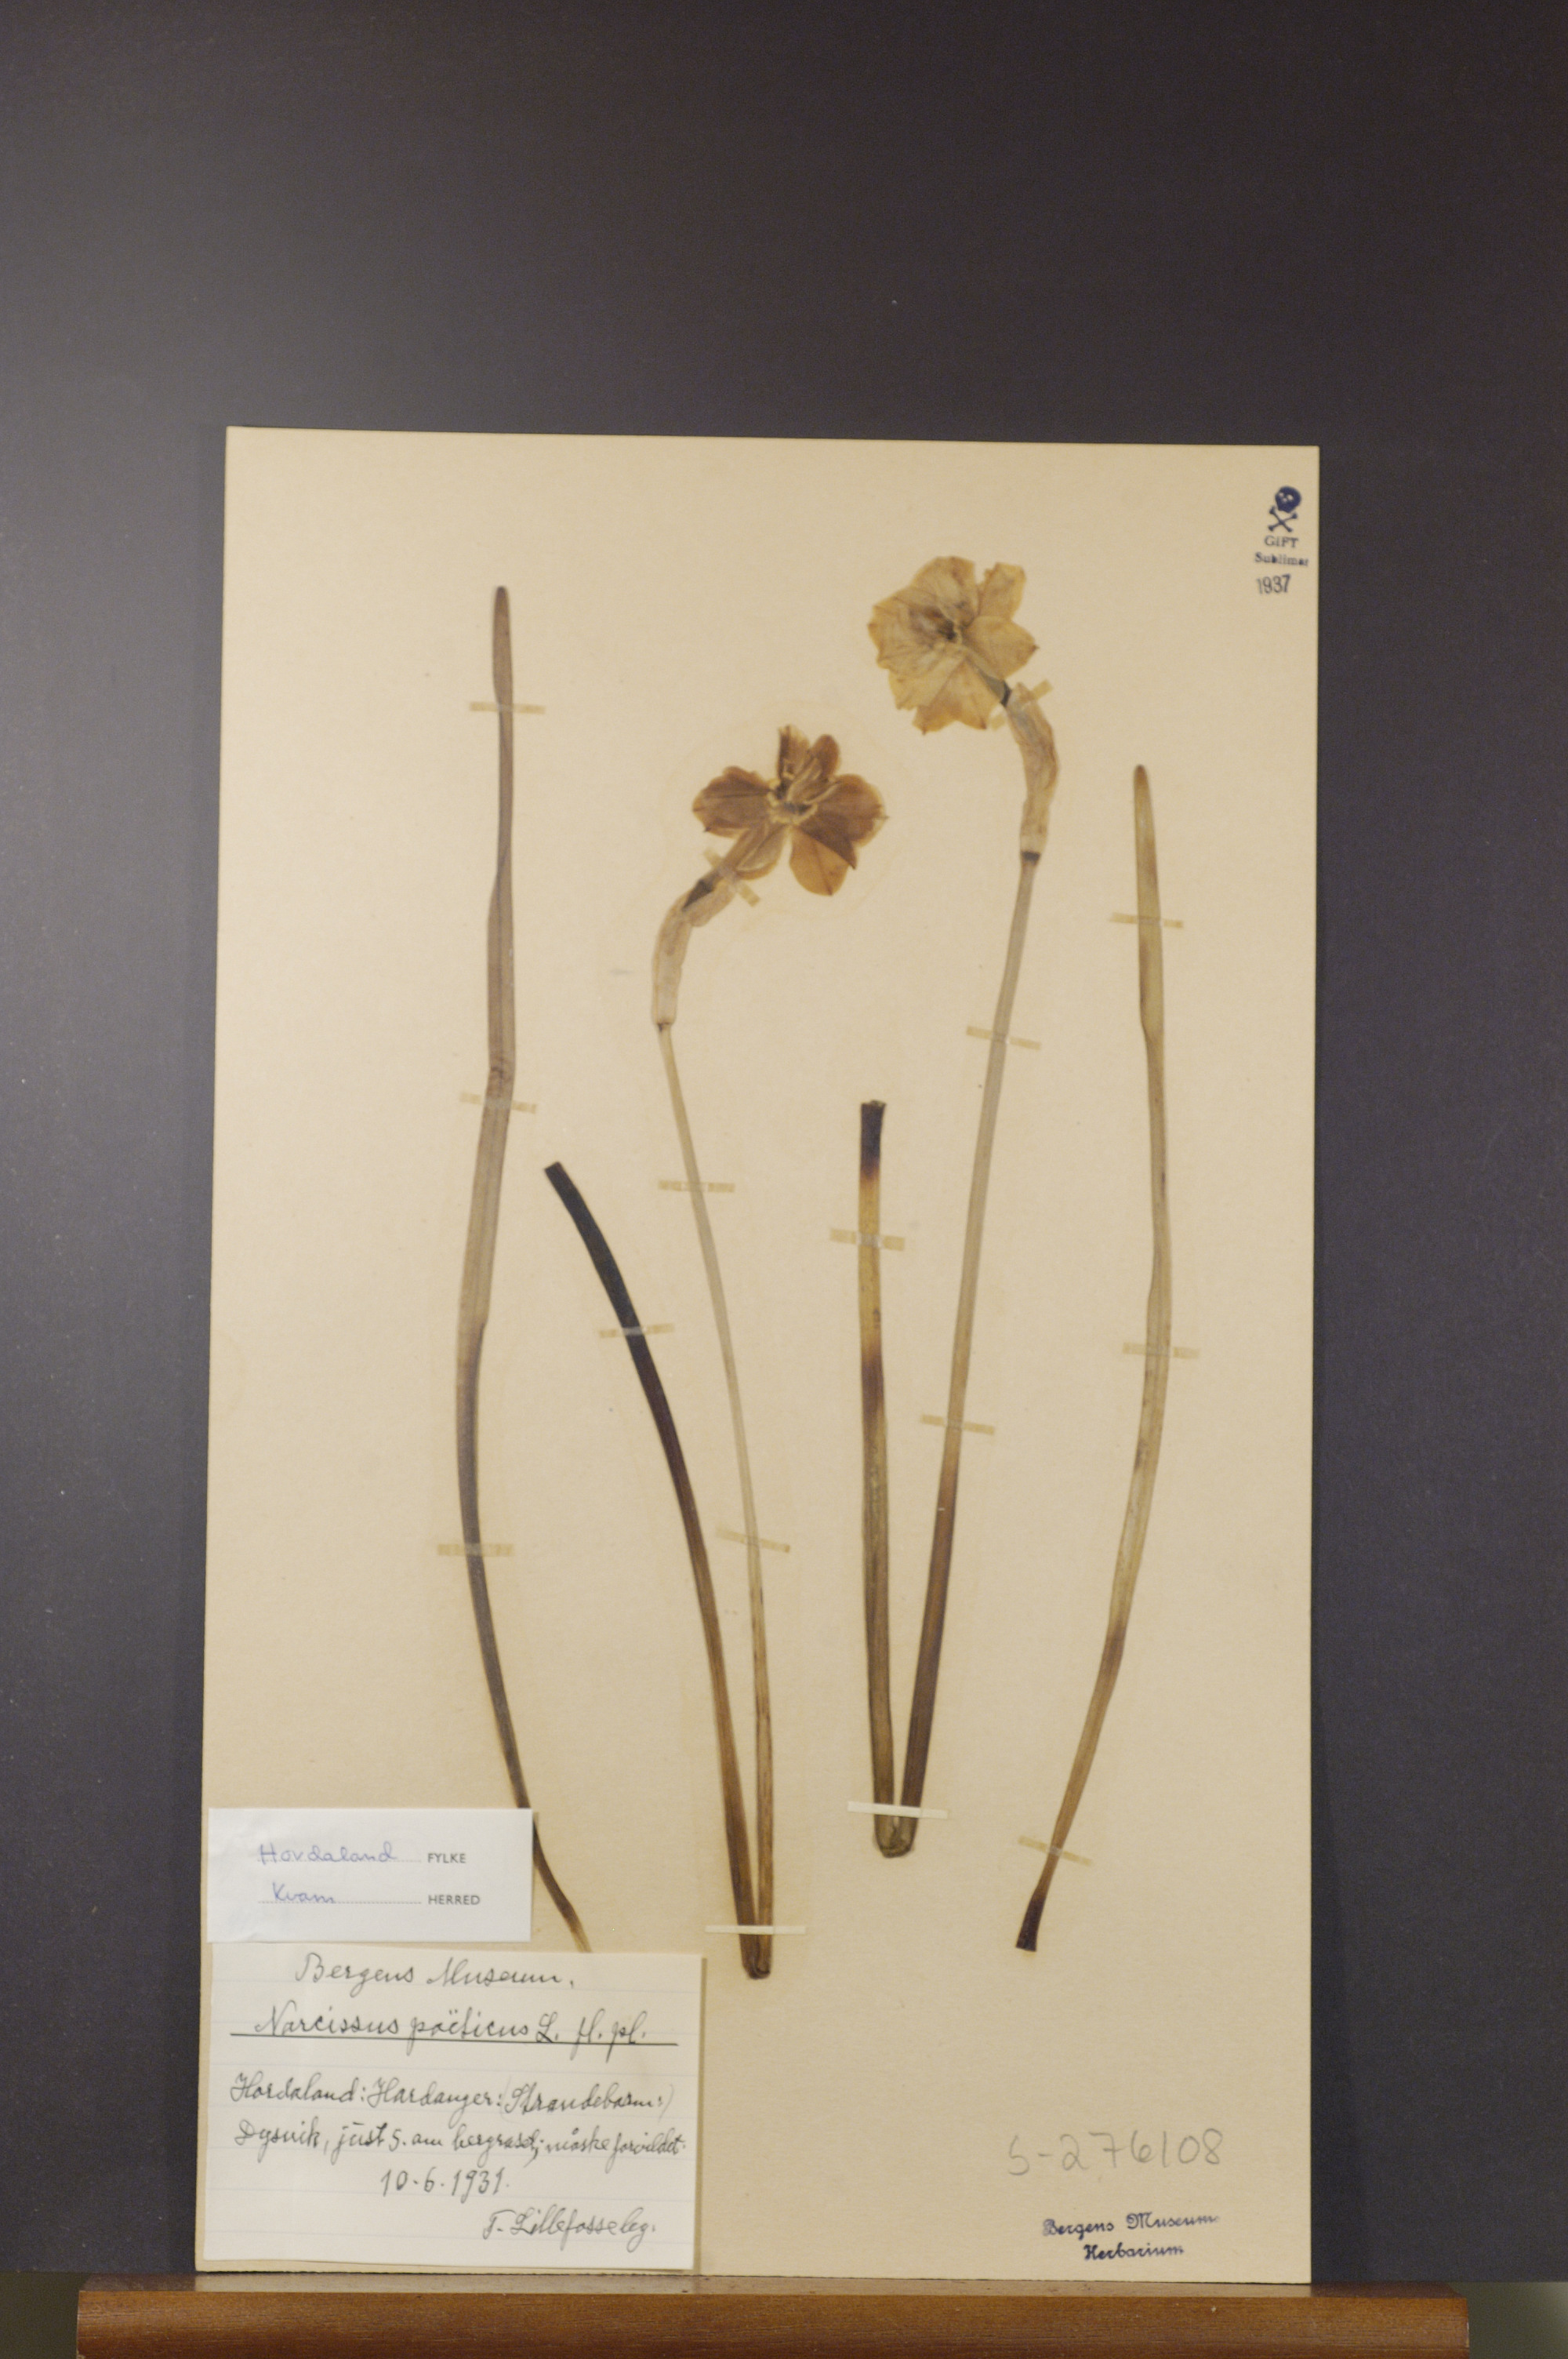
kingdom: Plantae
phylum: Tracheophyta
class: Liliopsida
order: Asparagales
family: Amaryllidaceae
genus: Narcissus
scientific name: Narcissus poeticus
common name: Pheasant's-eye daffodil
